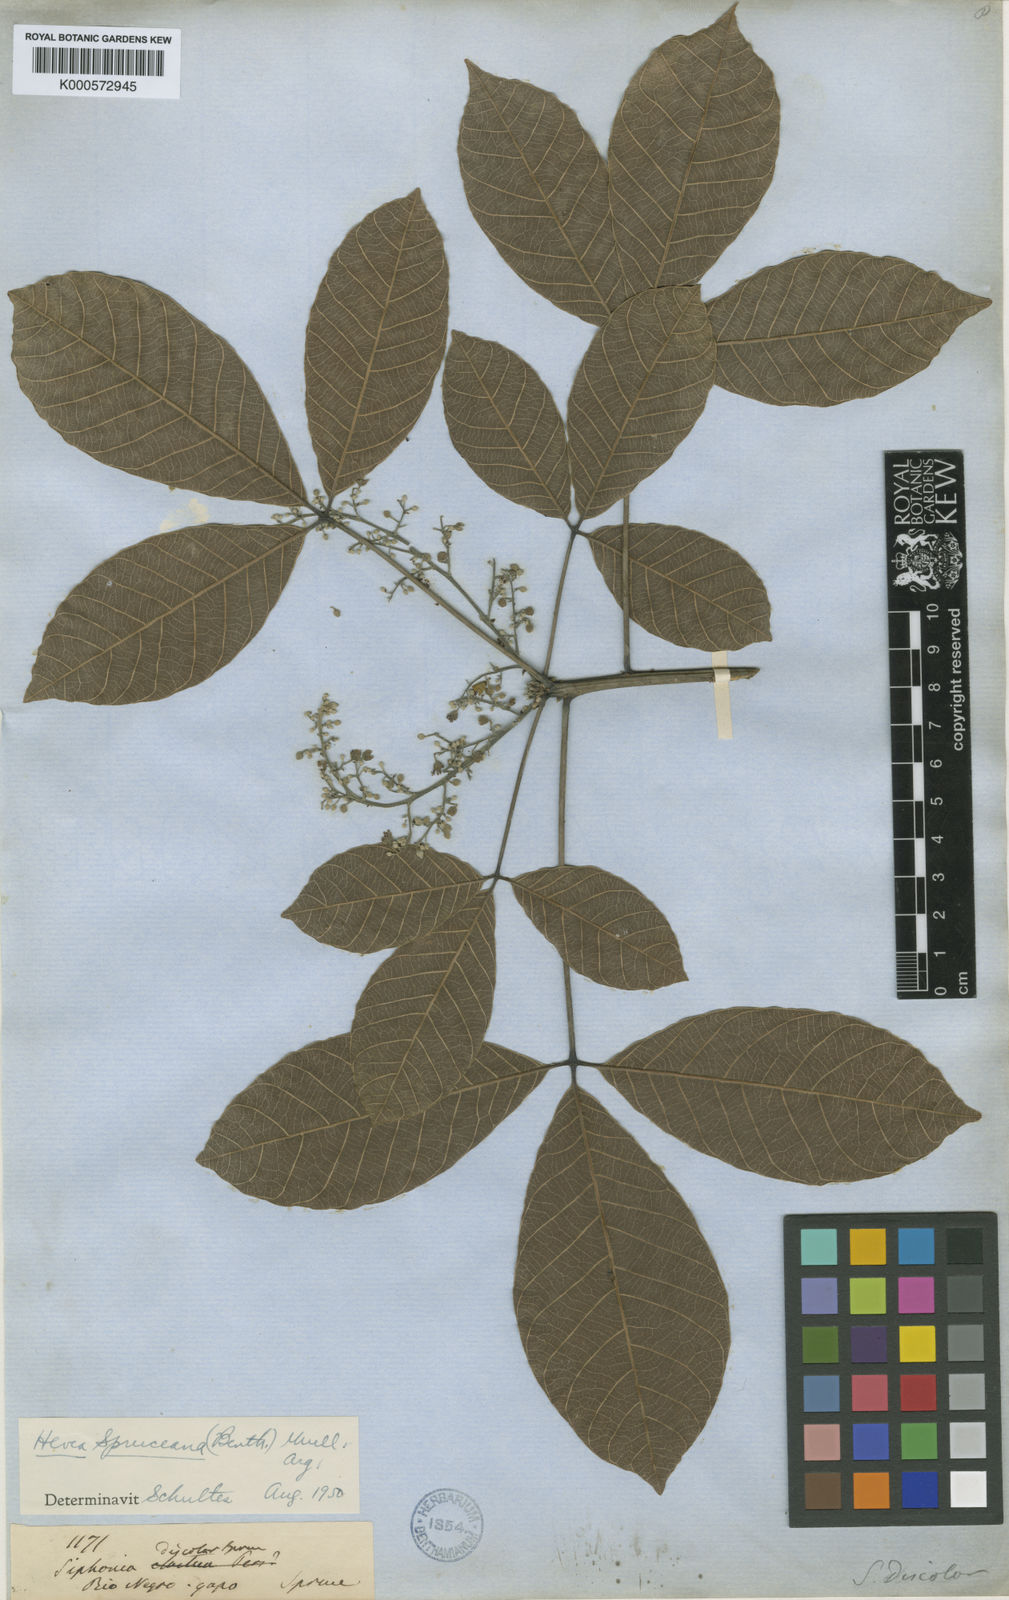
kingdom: Plantae
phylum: Tracheophyta
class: Magnoliopsida
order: Malpighiales
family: Euphorbiaceae
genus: Hevea
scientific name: Hevea
